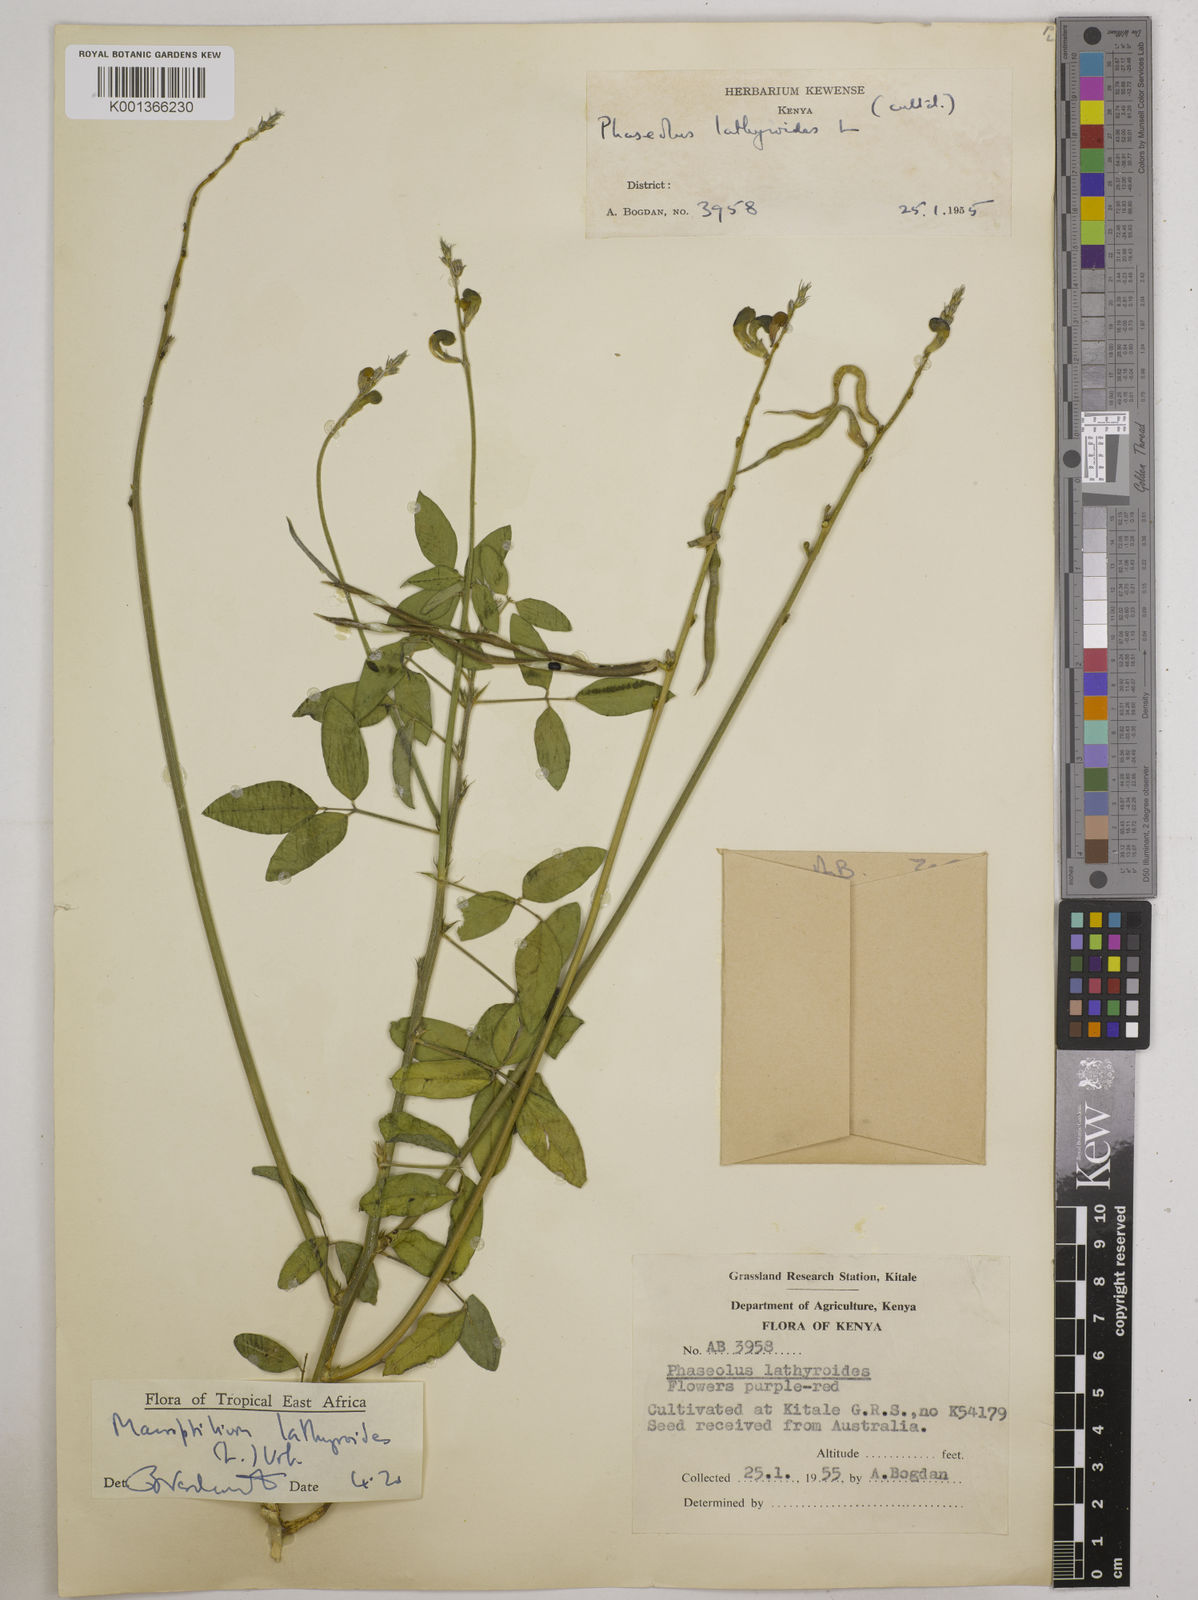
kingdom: Plantae
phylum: Tracheophyta
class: Magnoliopsida
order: Fabales
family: Fabaceae
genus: Macroptilium
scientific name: Macroptilium lathyroides
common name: Wild bushbean
